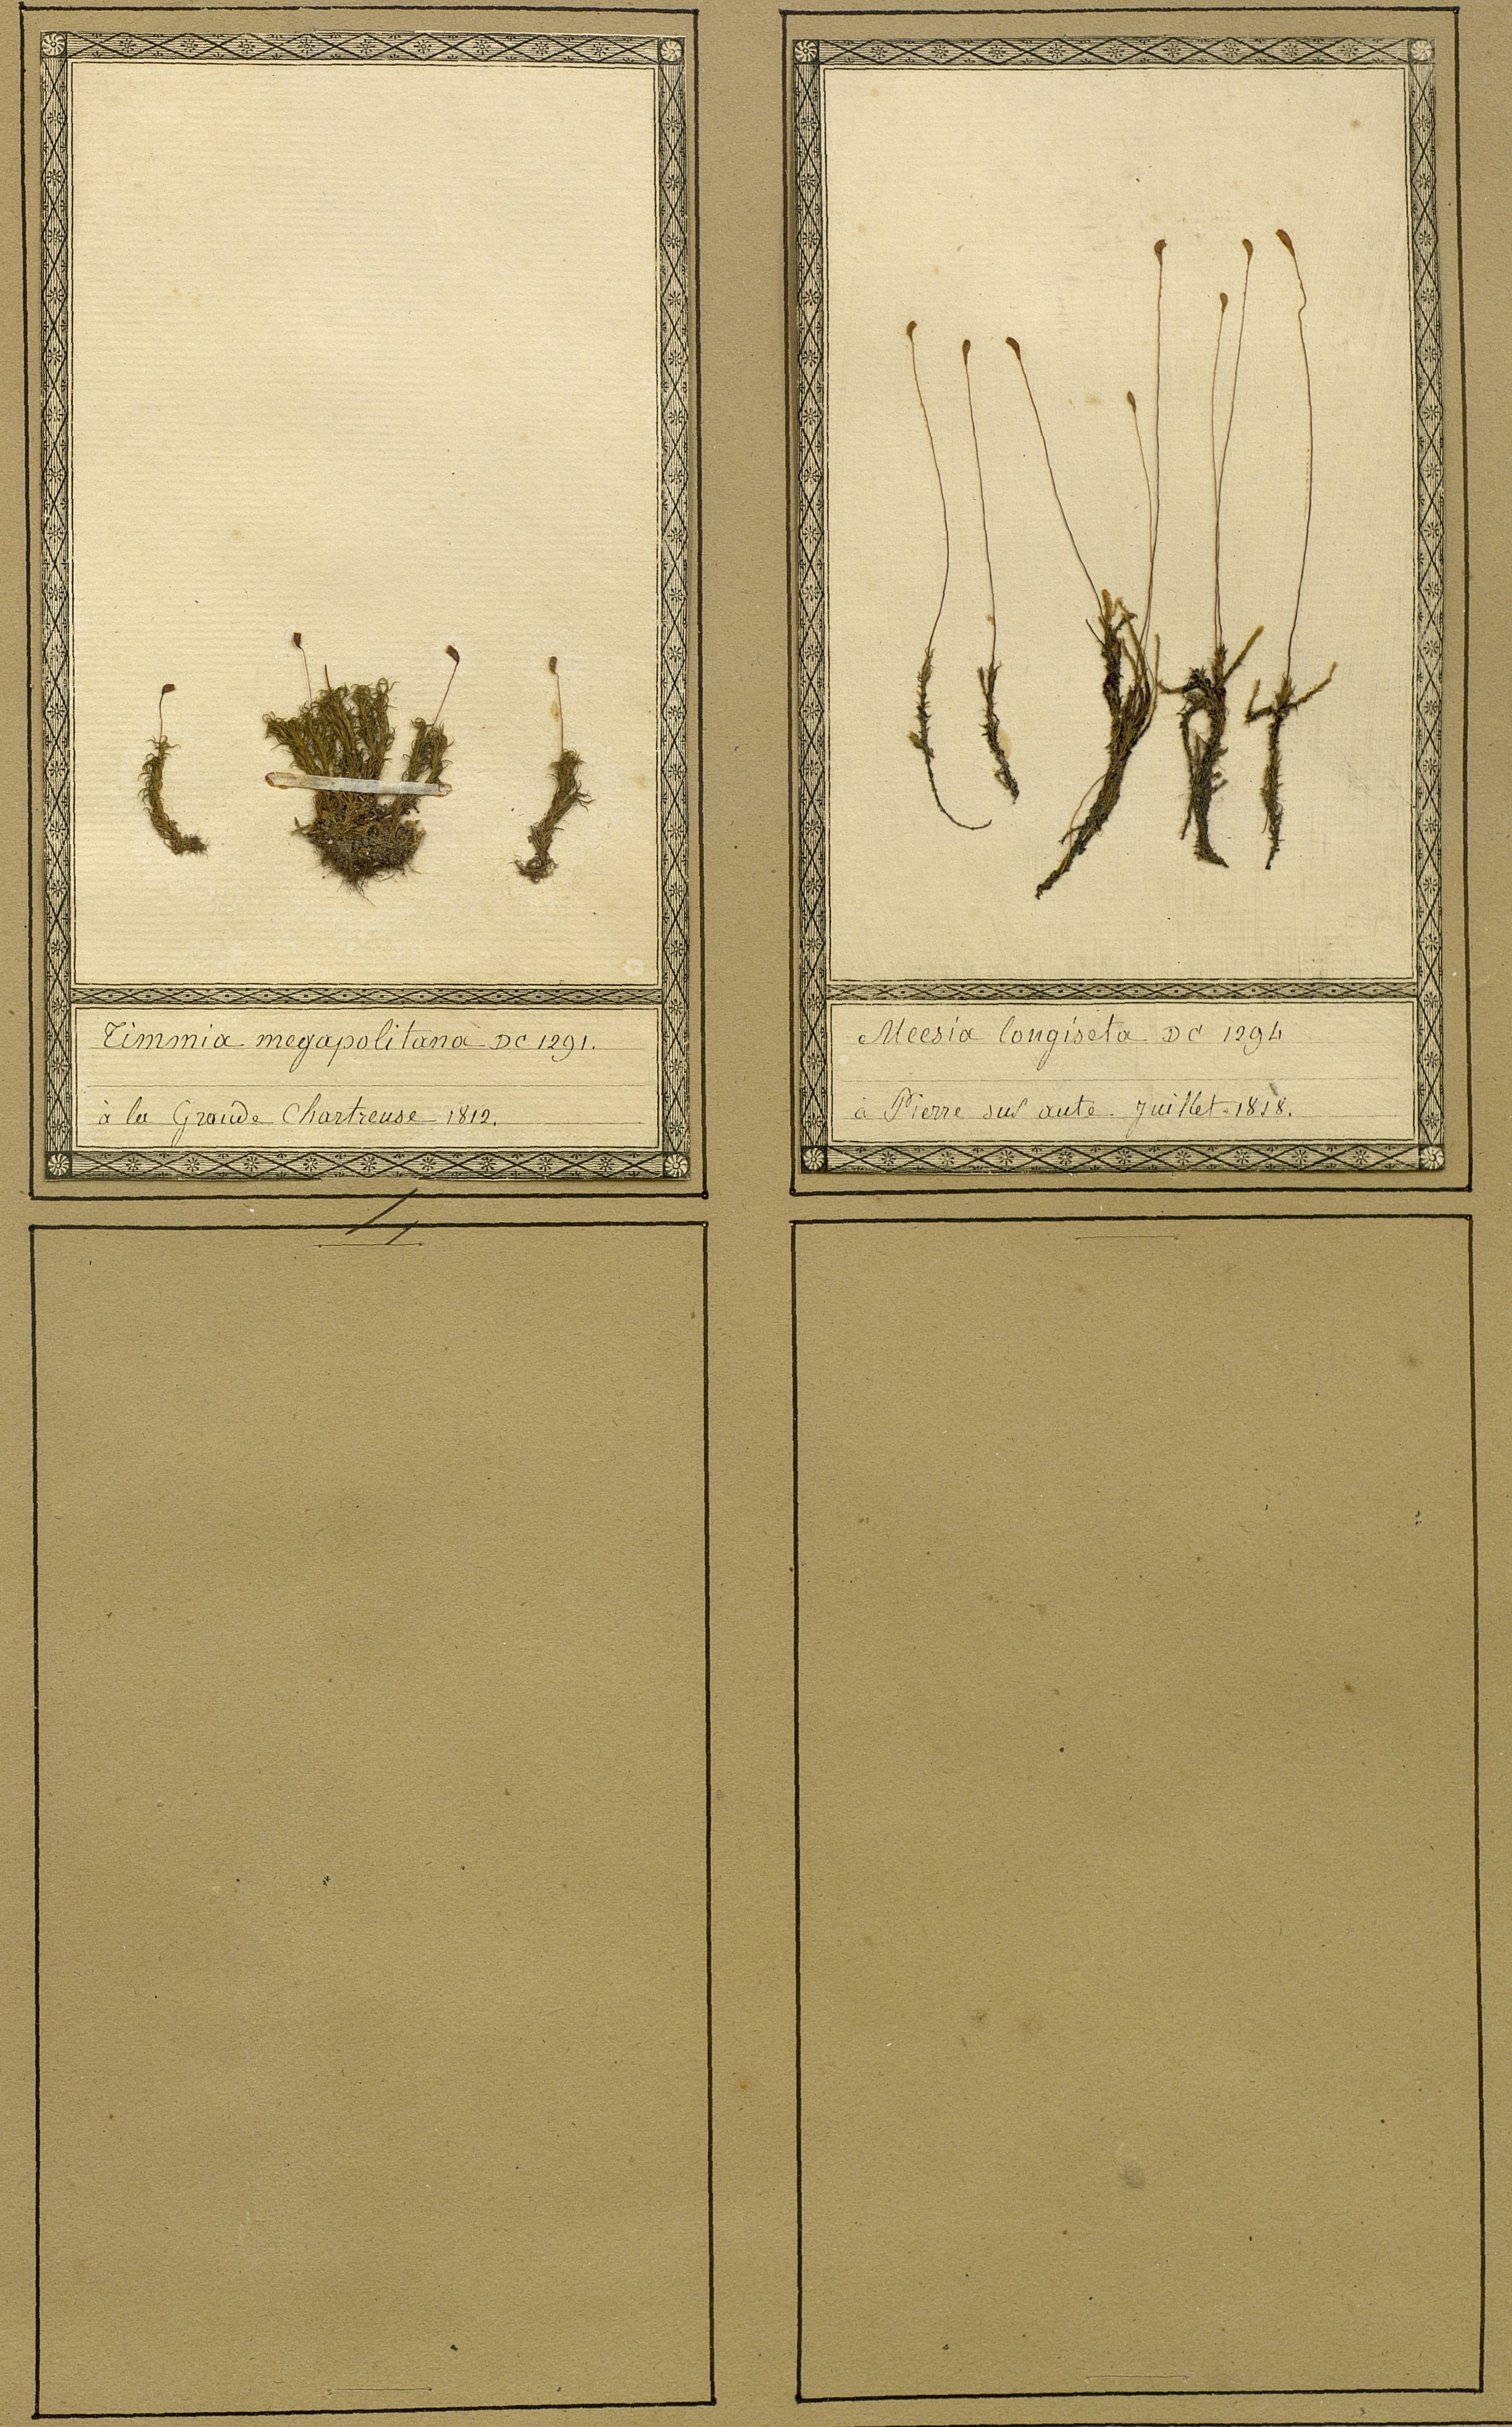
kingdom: Plantae
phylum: Bryophyta
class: Bryopsida
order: Timmiales
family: Timmiaceae
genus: Timmia
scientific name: Timmia megapolitana
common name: Warrior moss
